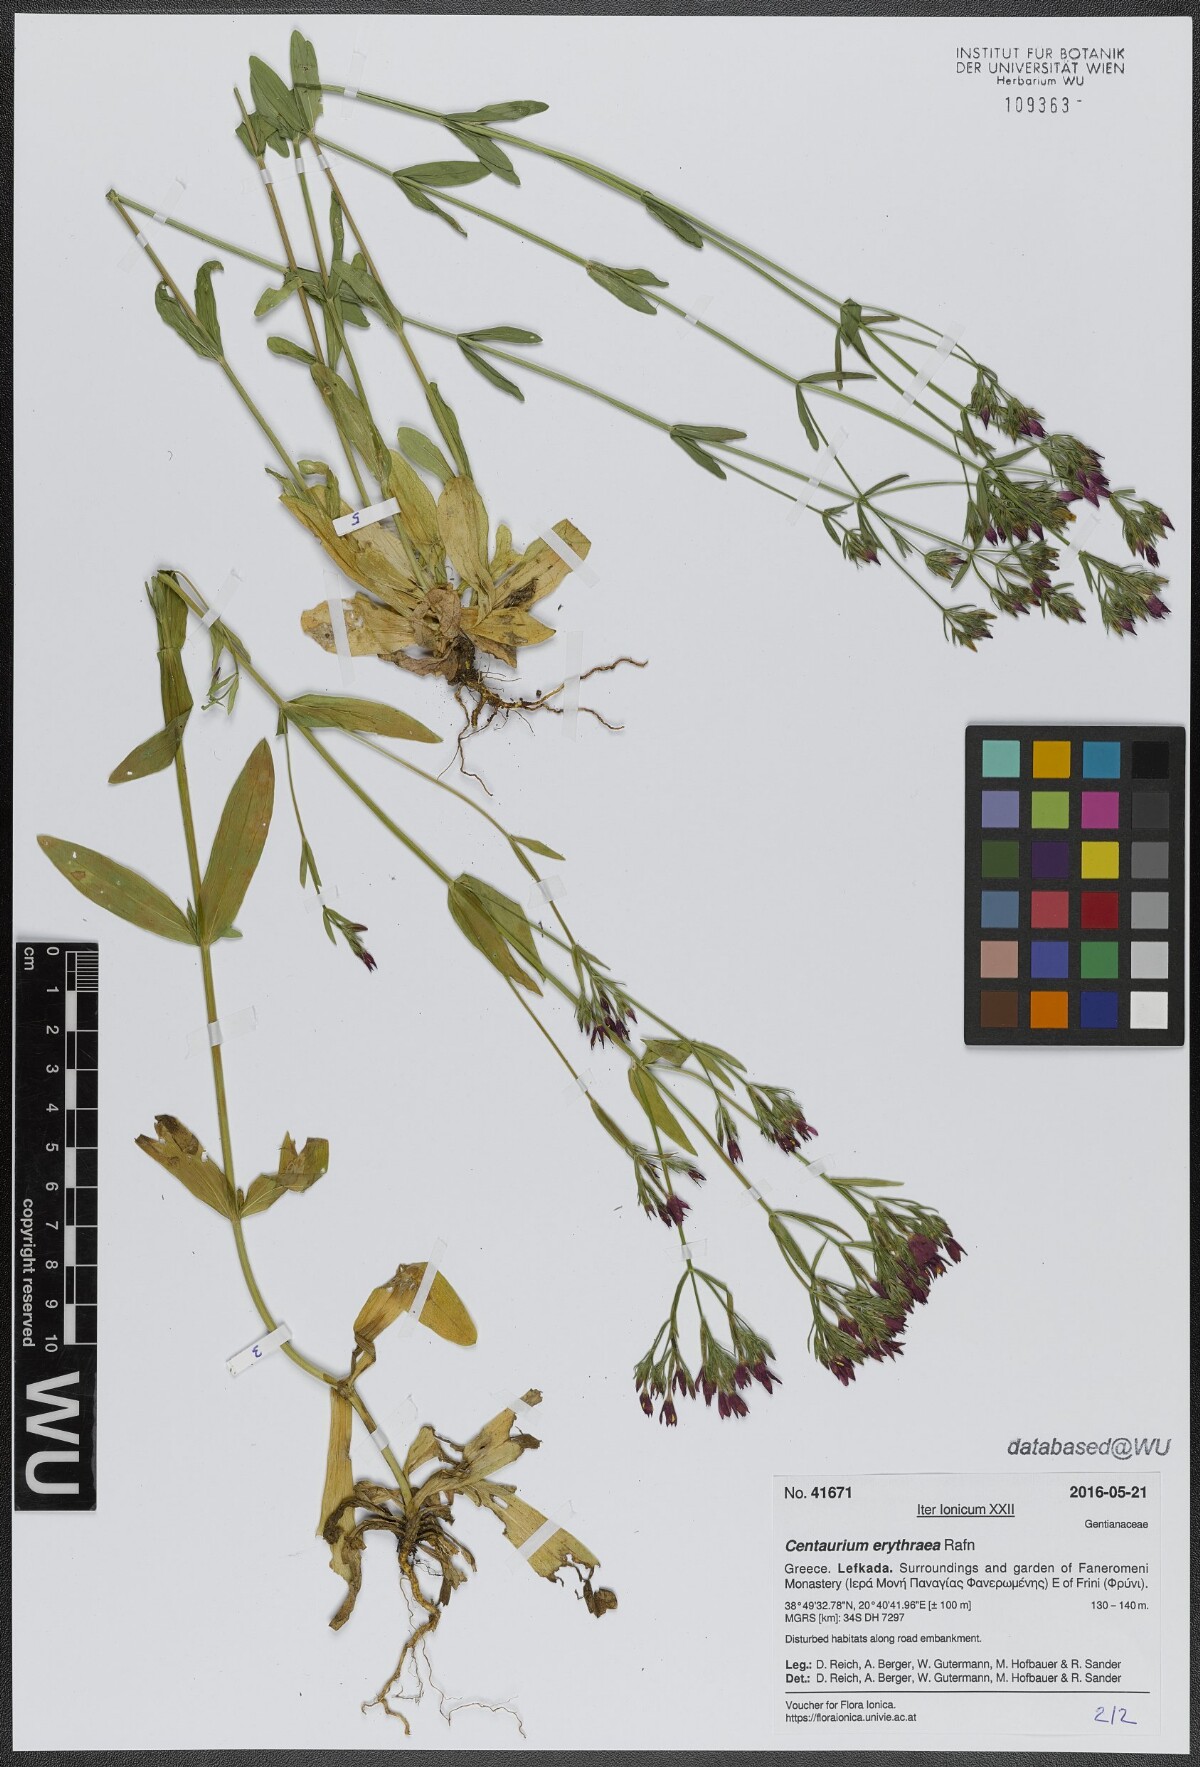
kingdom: Plantae
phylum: Tracheophyta
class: Magnoliopsida
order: Gentianales
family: Gentianaceae
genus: Centaurium
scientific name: Centaurium erythraea
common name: Common centaury
